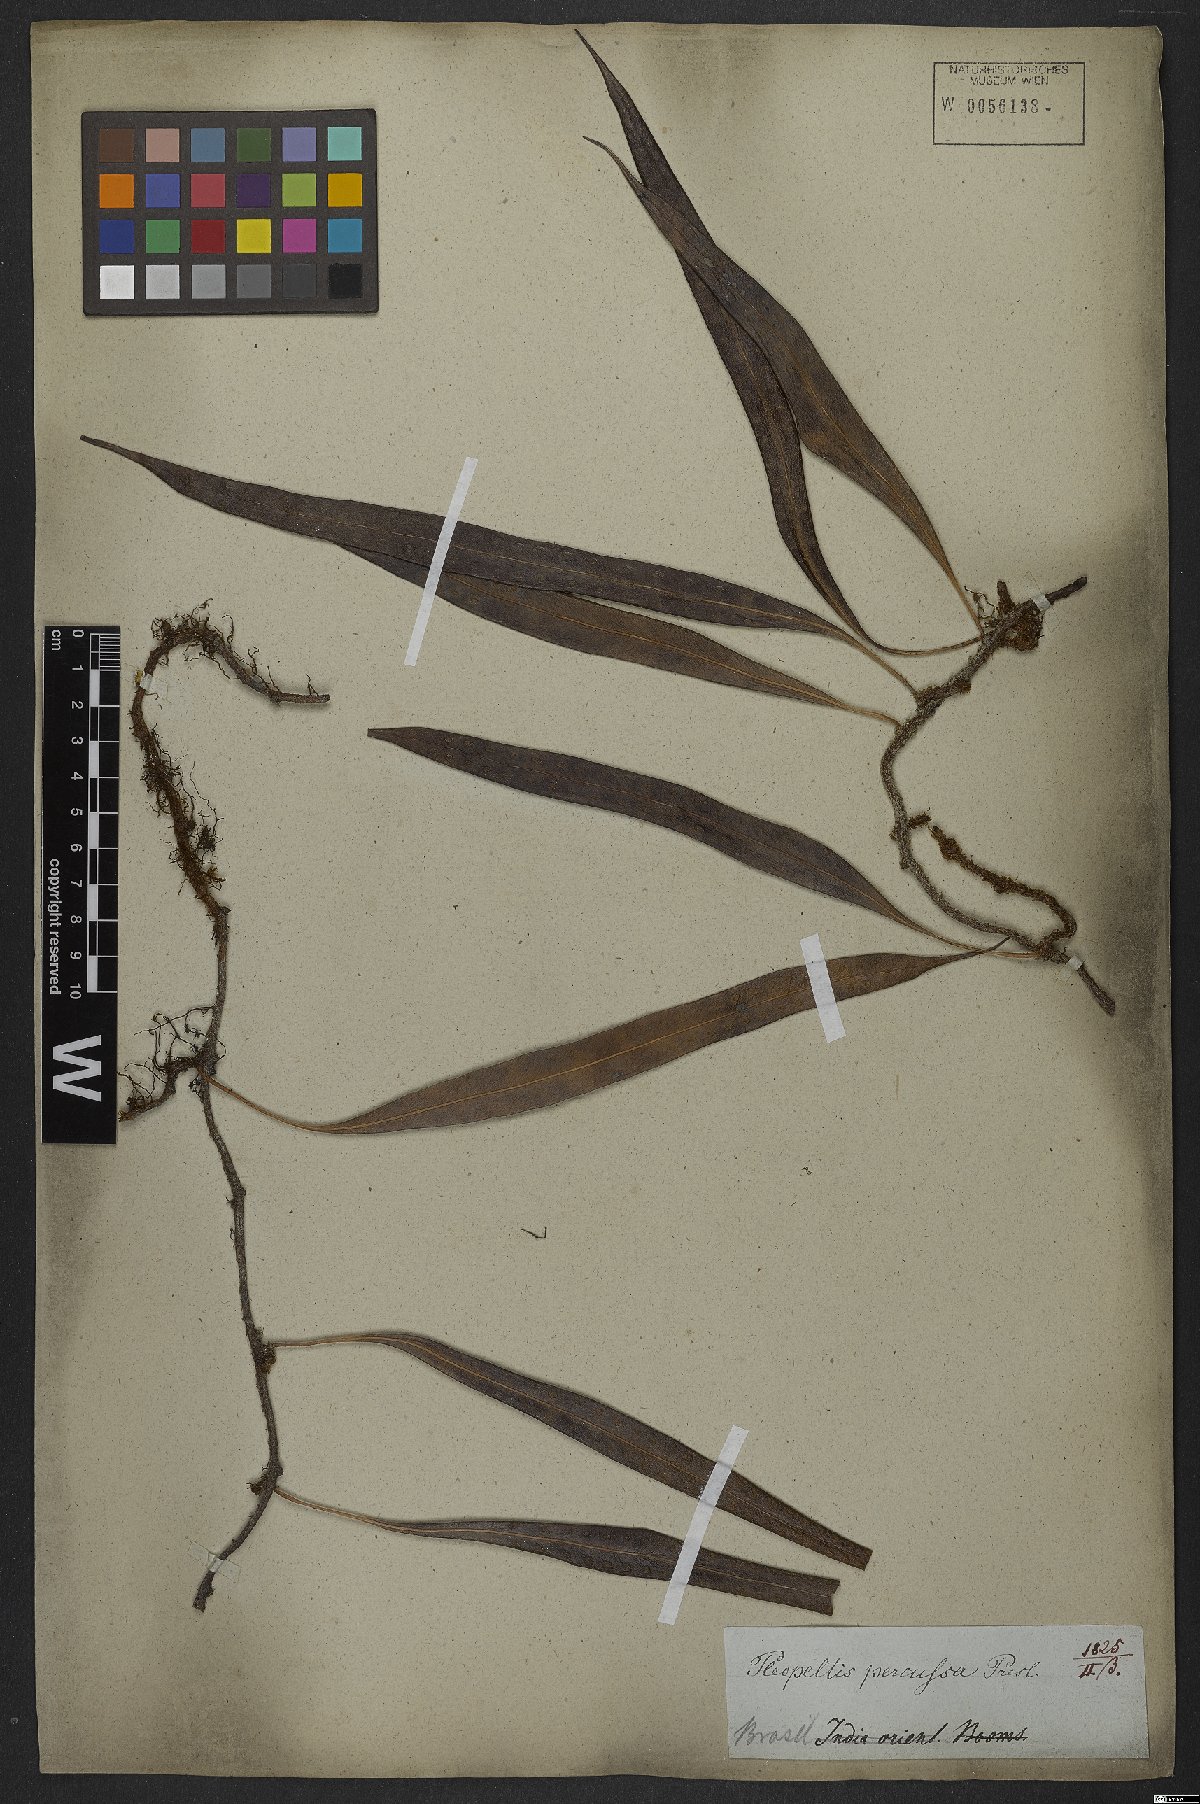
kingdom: Plantae
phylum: Tracheophyta
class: Polypodiopsida
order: Polypodiales
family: Polypodiaceae
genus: Microgramma
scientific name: Microgramma percussa
